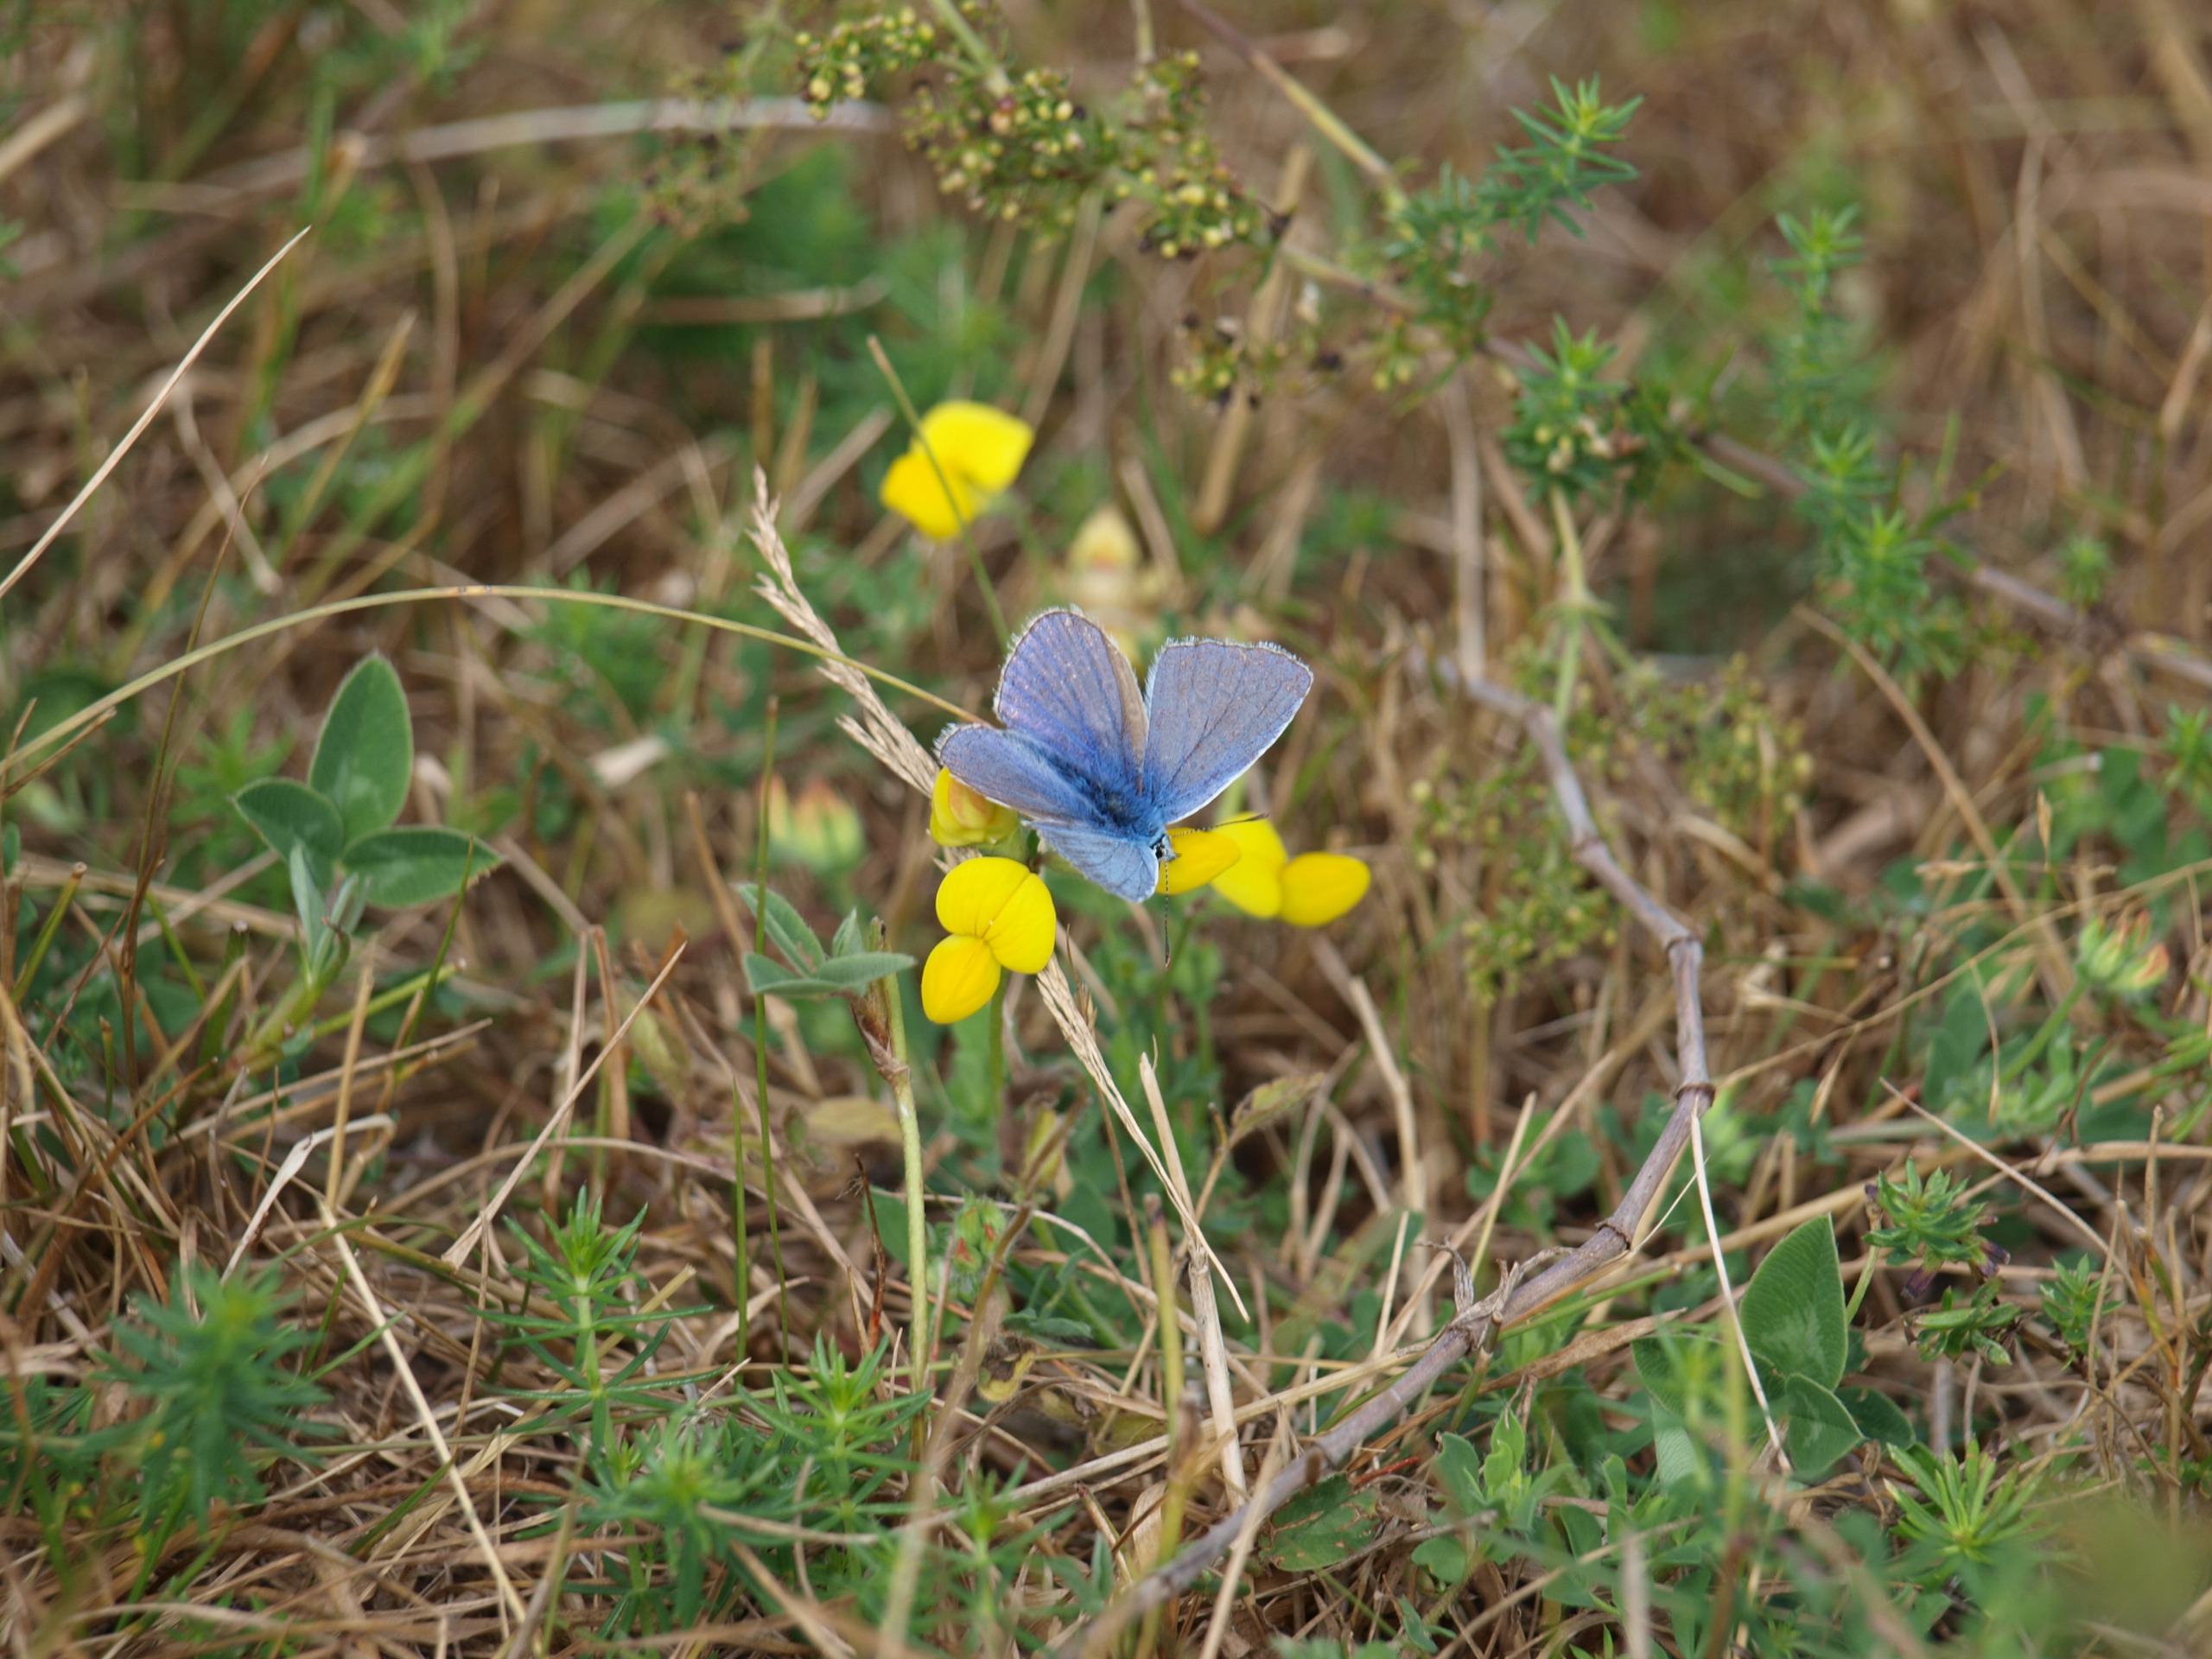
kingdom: Animalia
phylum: Arthropoda
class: Insecta
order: Lepidoptera
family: Lycaenidae
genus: Polyommatus
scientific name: Polyommatus icarus
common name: Almindelig blåfugl
